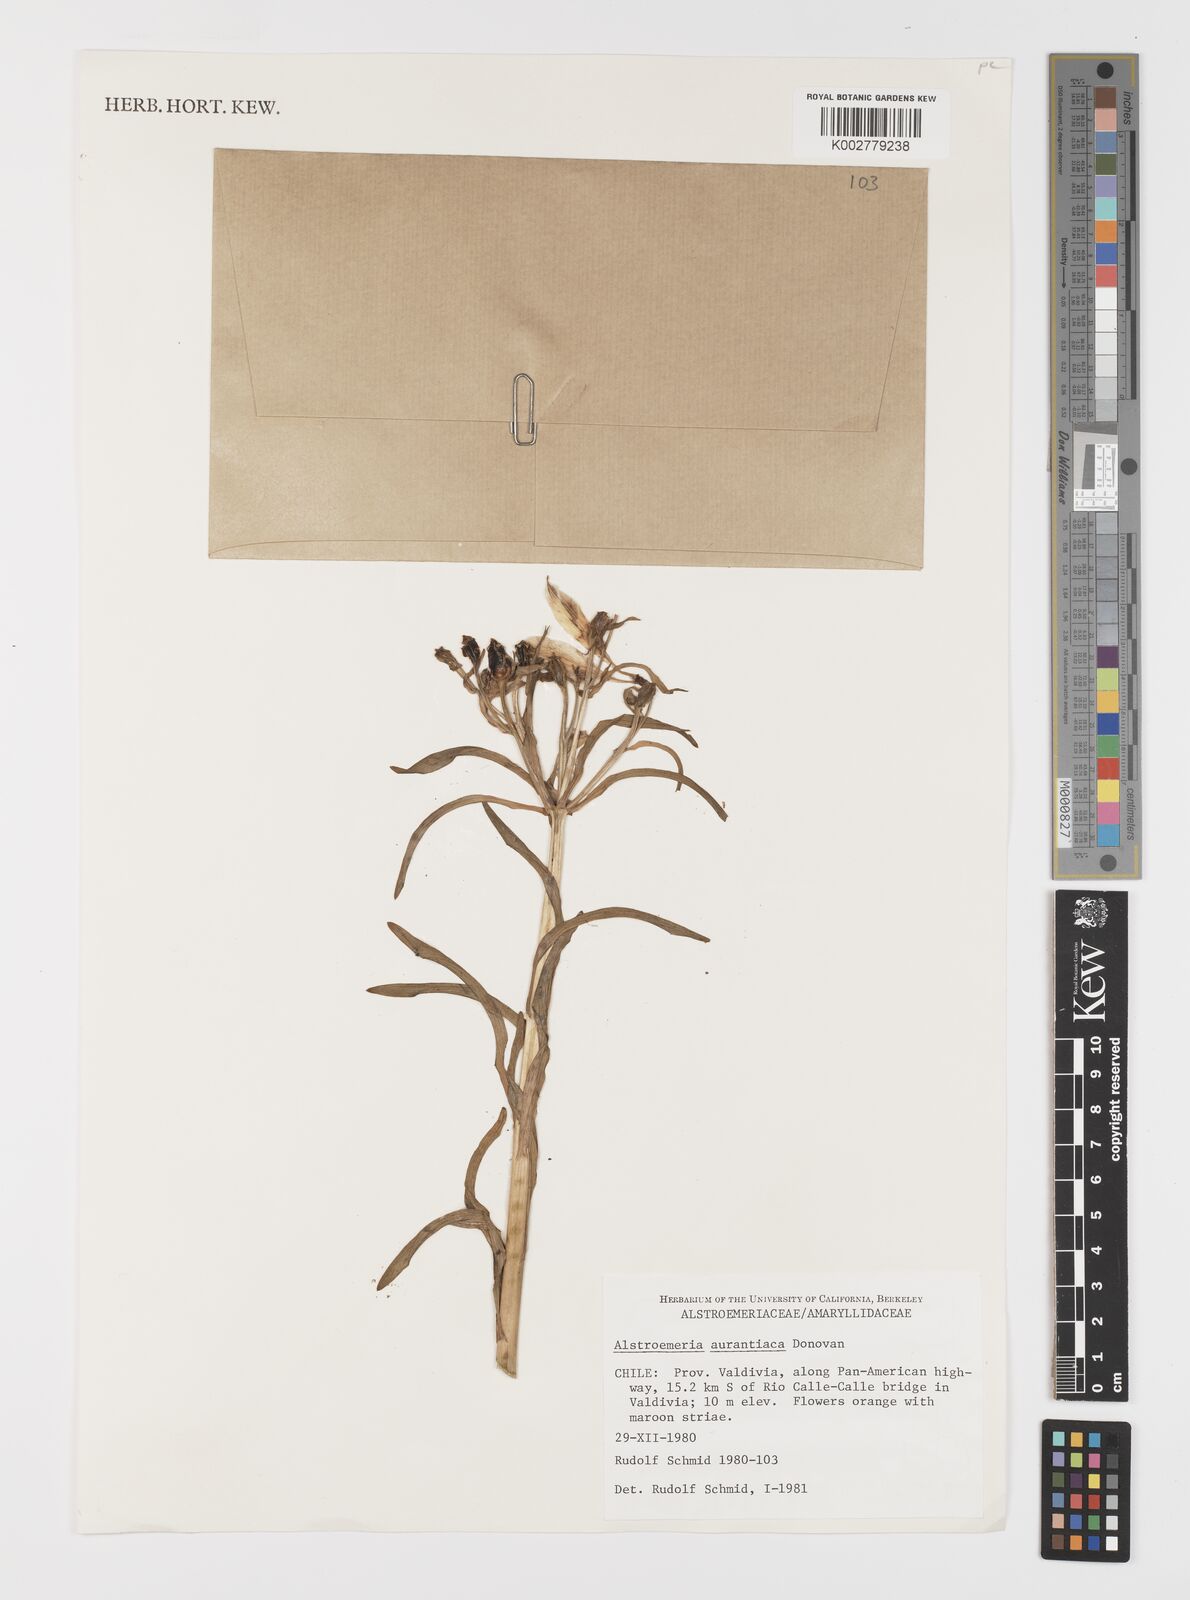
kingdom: Plantae
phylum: Tracheophyta
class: Liliopsida
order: Liliales
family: Alstroemeriaceae
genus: Alstroemeria
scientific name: Alstroemeria aurea
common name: Peruvian lily
